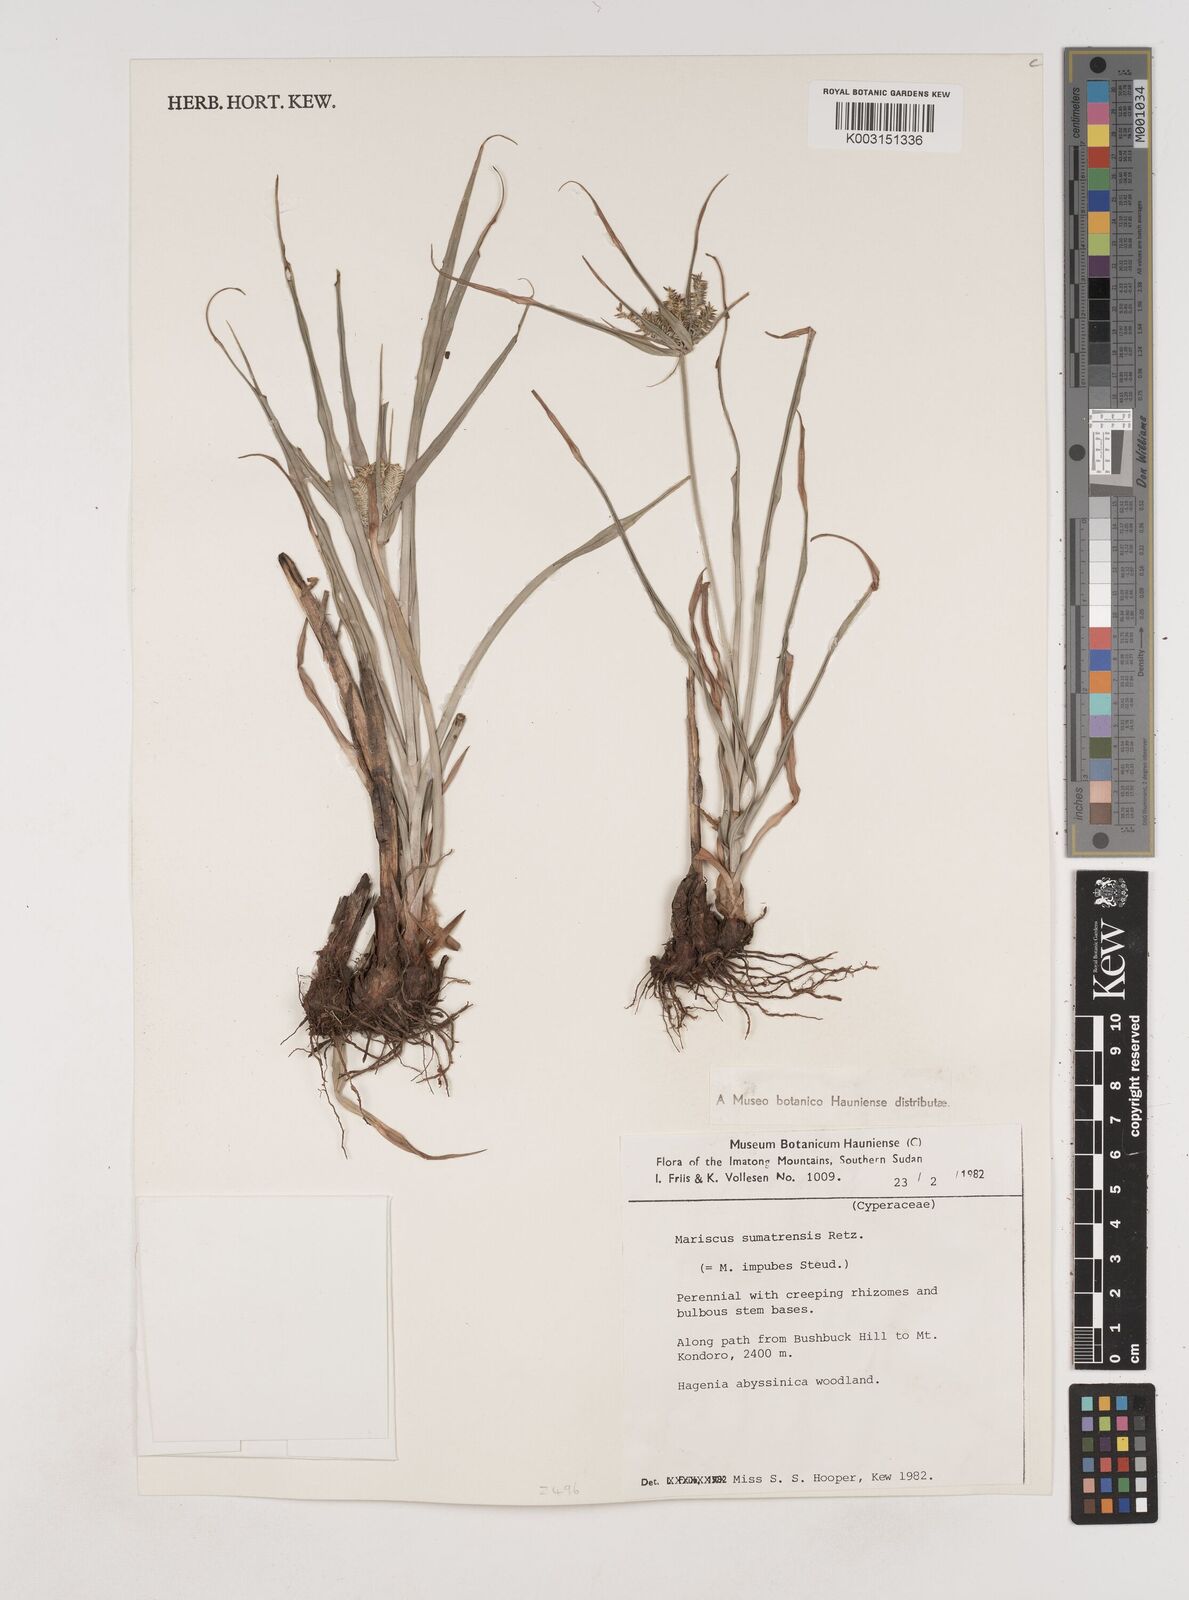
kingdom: Plantae
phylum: Tracheophyta
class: Liliopsida
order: Poales
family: Cyperaceae
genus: Cyperus
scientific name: Cyperus cyperoides
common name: Pacific island flat sedge
